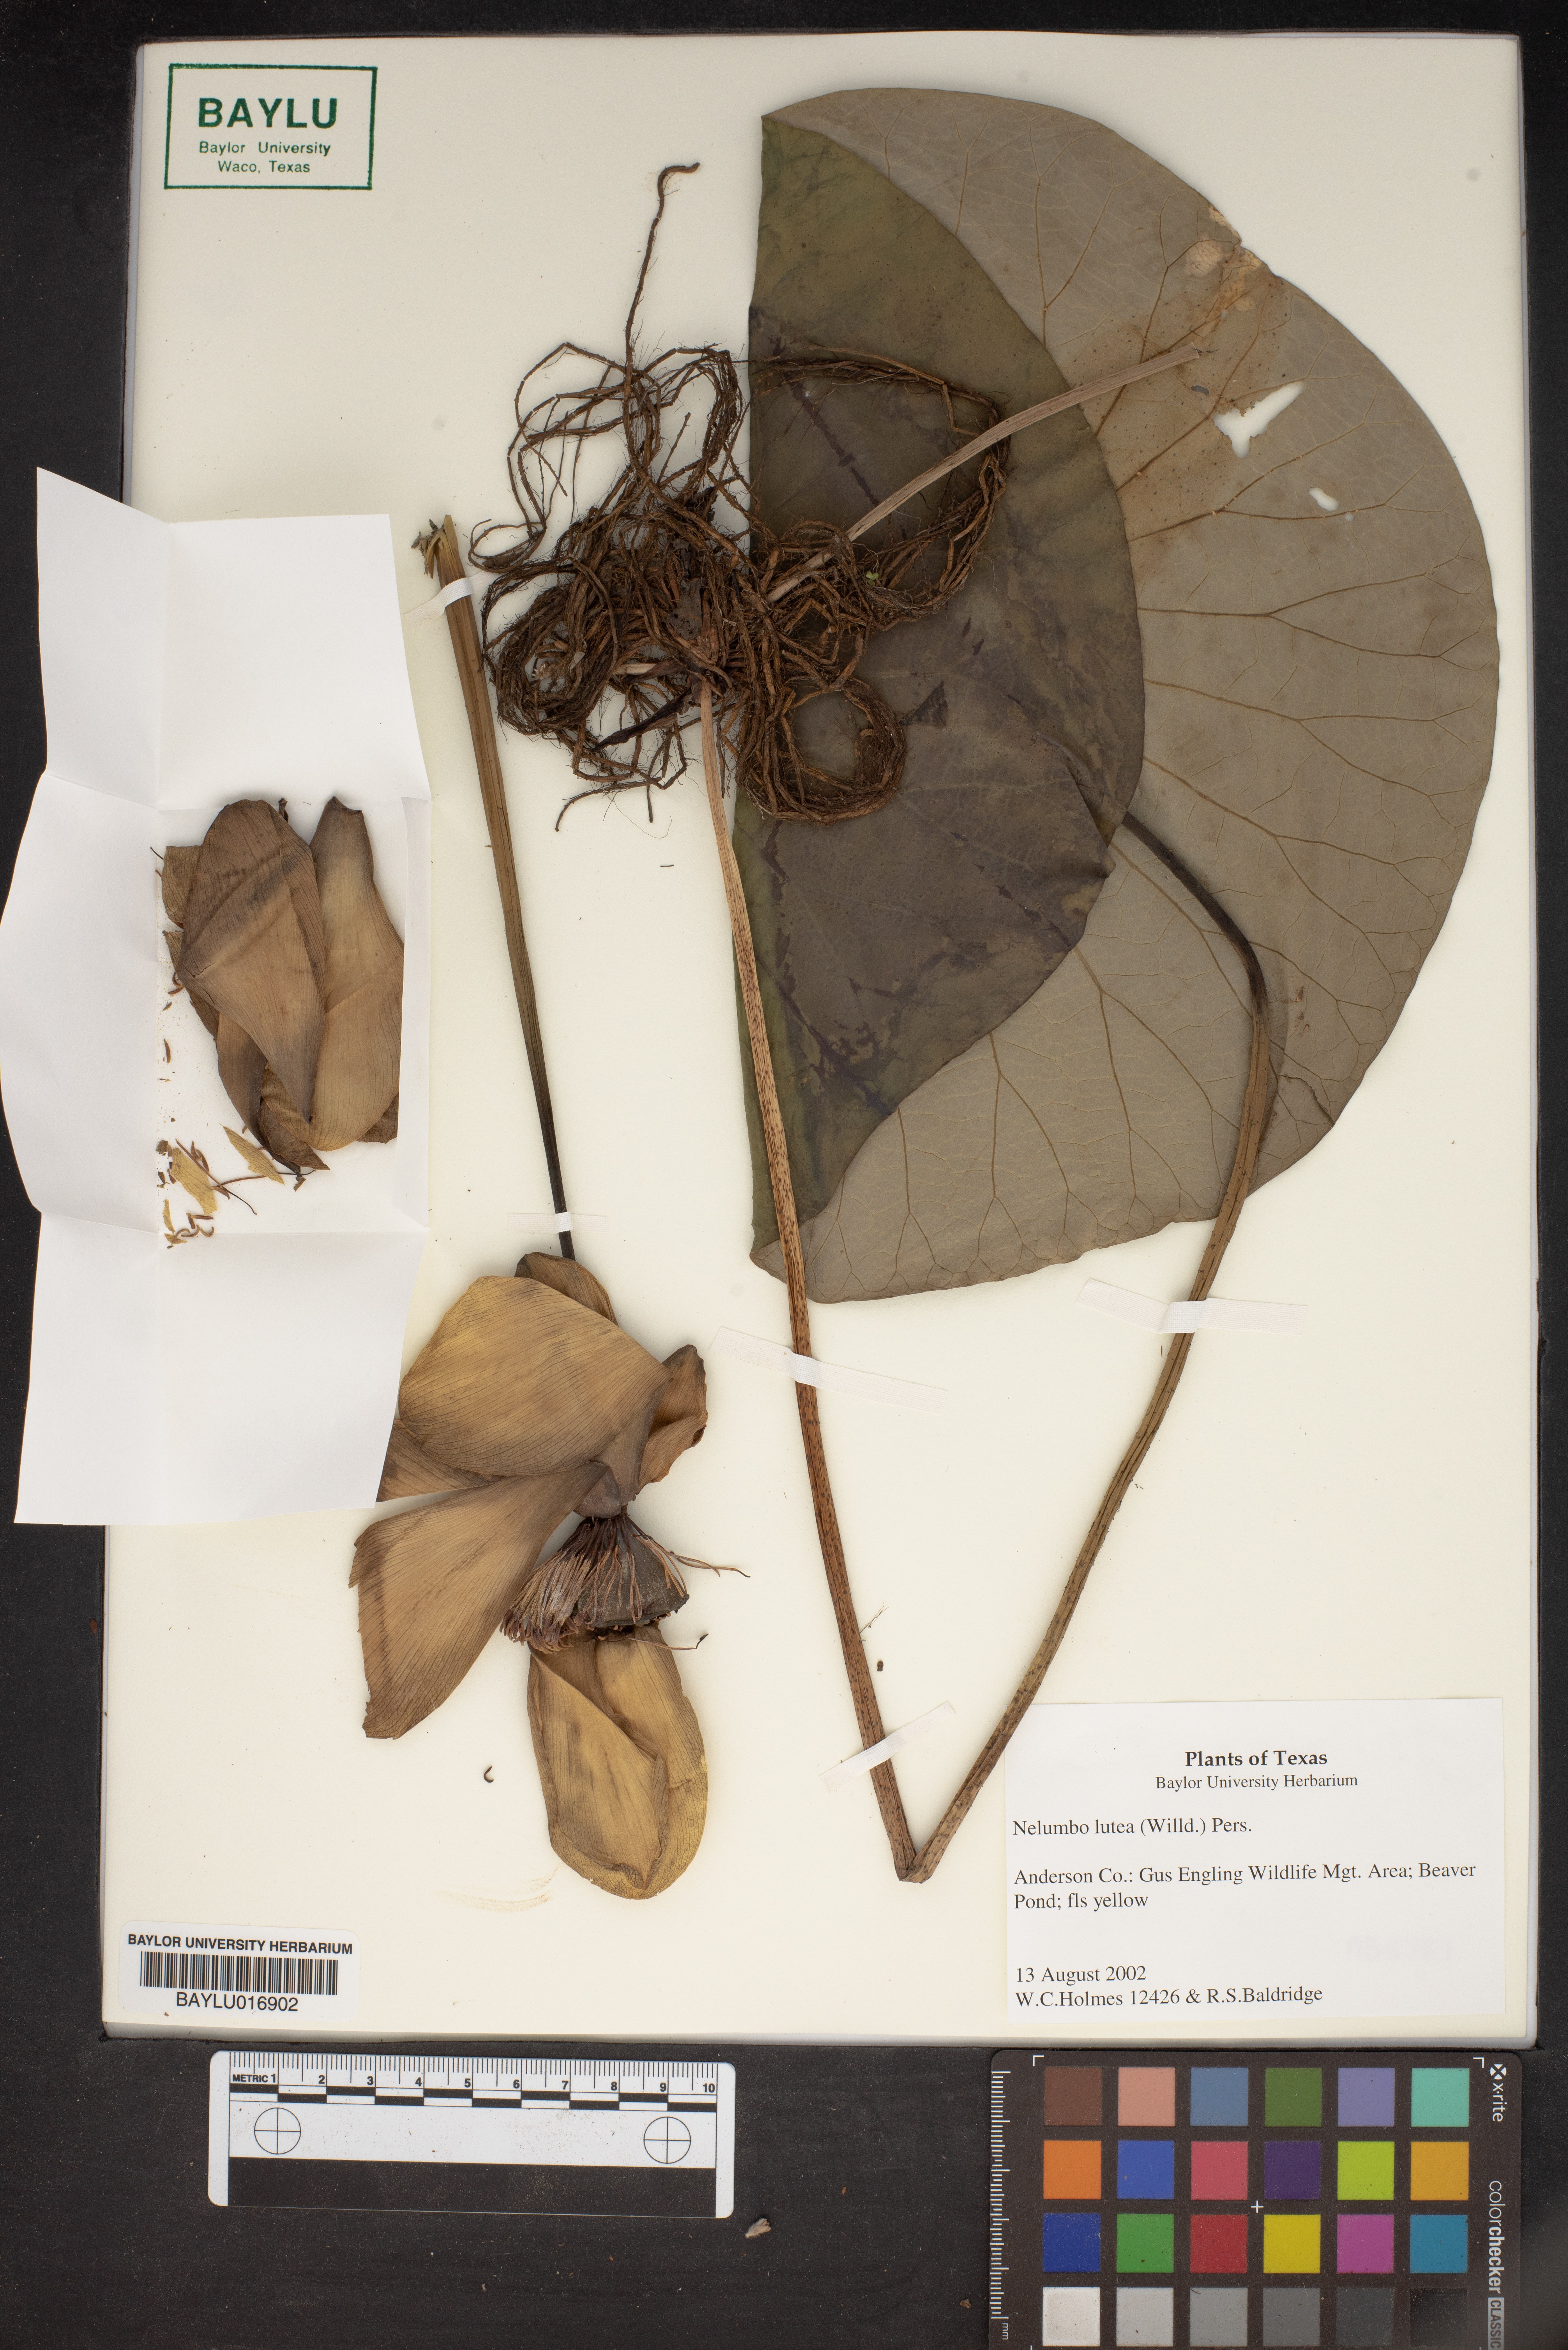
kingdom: Plantae
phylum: Tracheophyta
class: Magnoliopsida
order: Proteales
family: Nelumbonaceae
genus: Nelumbo
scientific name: Nelumbo lutea
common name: American lotus
